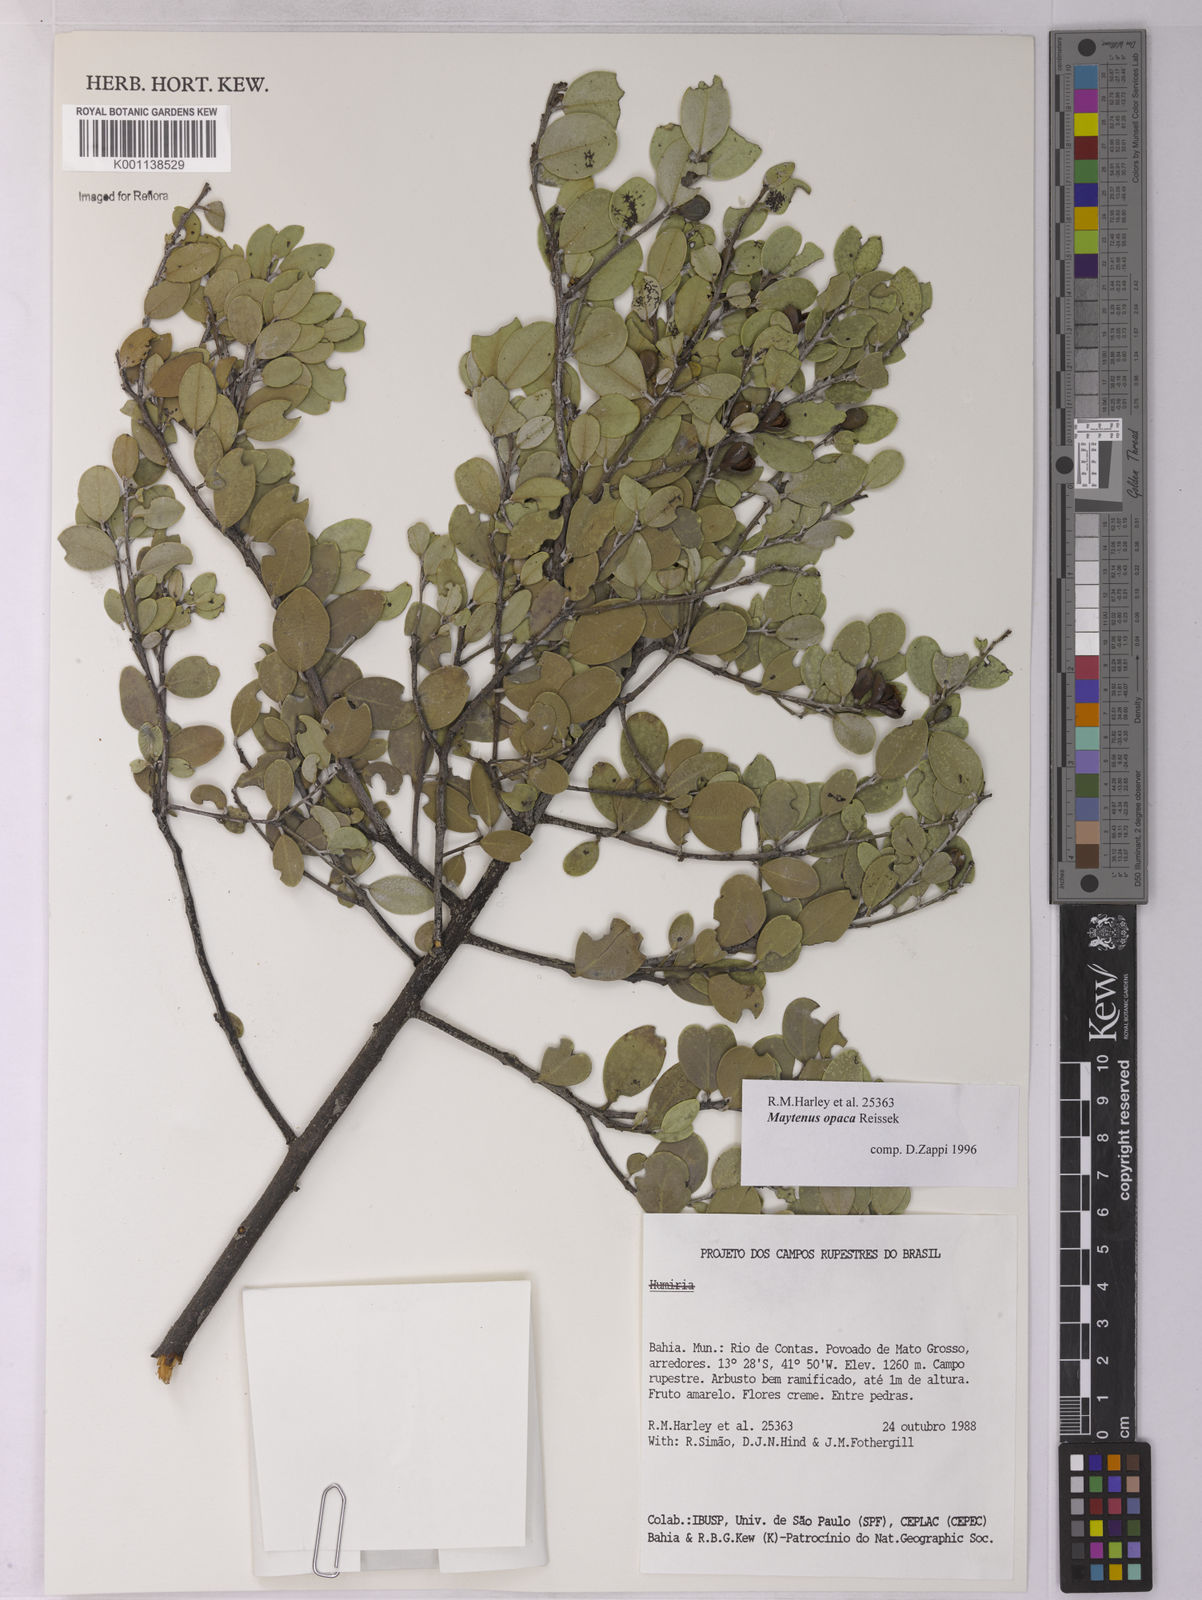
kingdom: Plantae
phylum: Tracheophyta
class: Magnoliopsida
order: Celastrales
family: Celastraceae
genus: Monteverdia
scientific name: Monteverdia opaca
